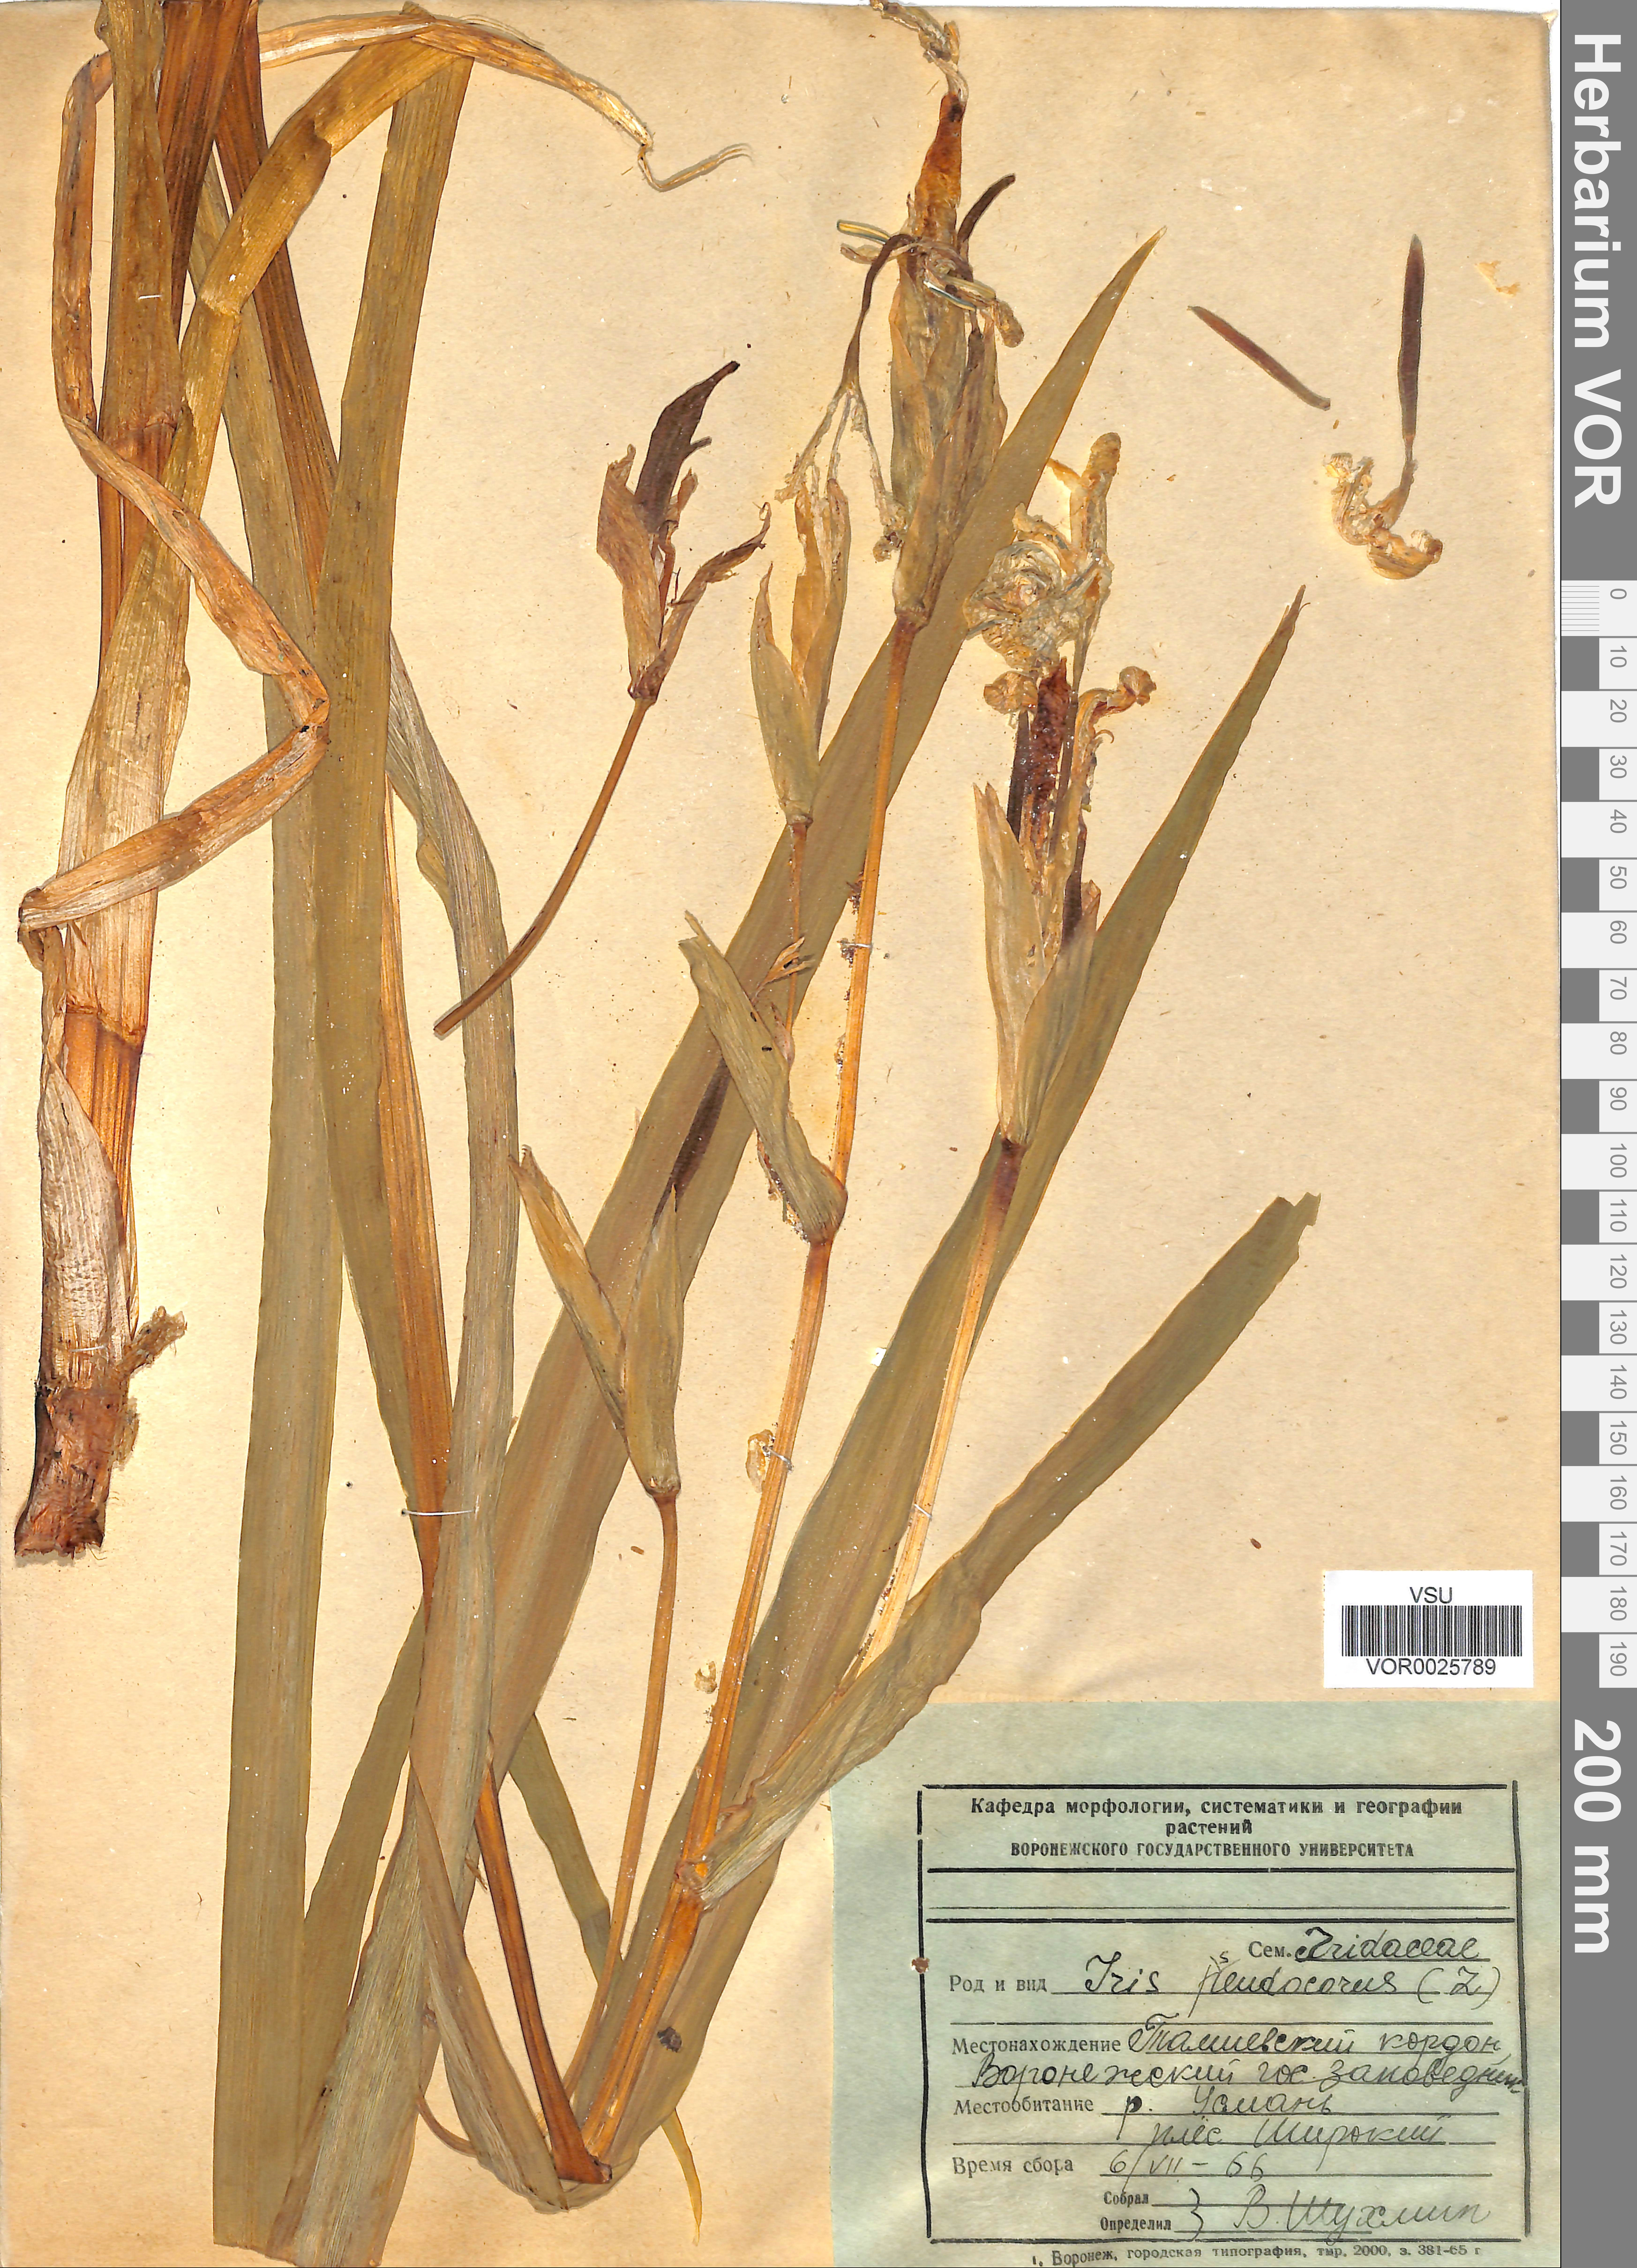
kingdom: Plantae
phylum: Tracheophyta
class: Liliopsida
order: Asparagales
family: Iridaceae
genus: Iris
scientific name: Iris pseudacorus
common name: Yellow flag
